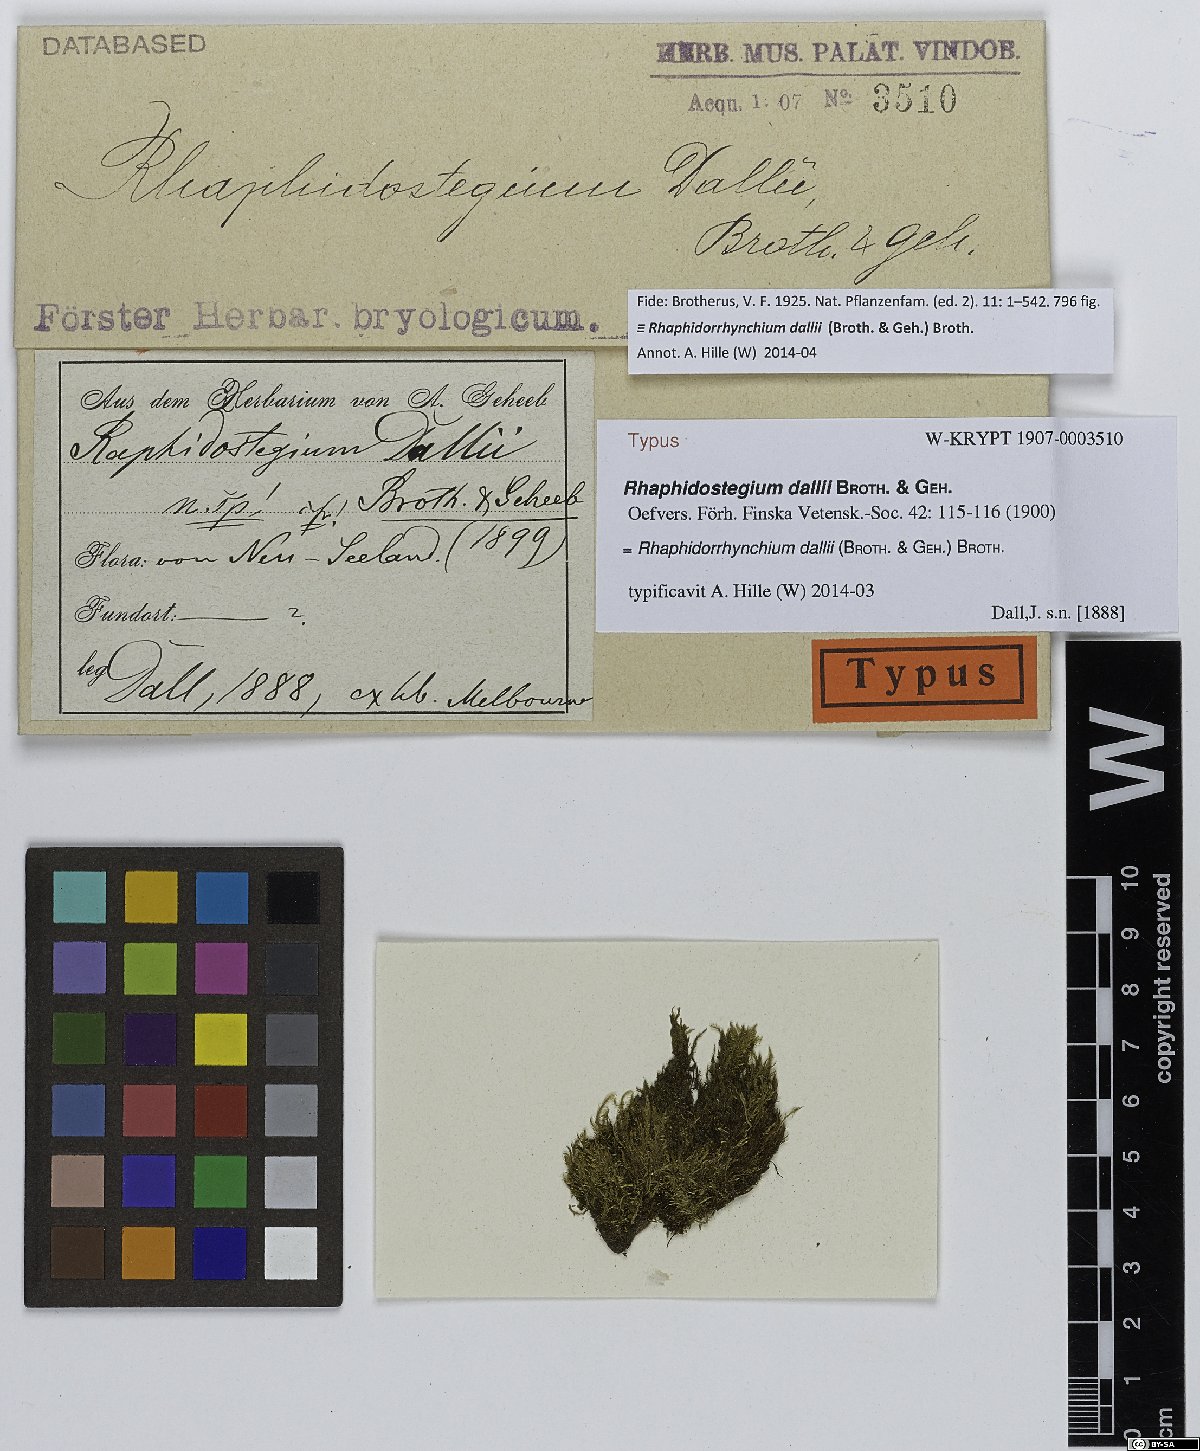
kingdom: Plantae
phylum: Bryophyta
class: Bryopsida
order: Hypnales
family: Sematophyllaceae
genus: Warburgiella
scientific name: Warburgiella leucocytus
